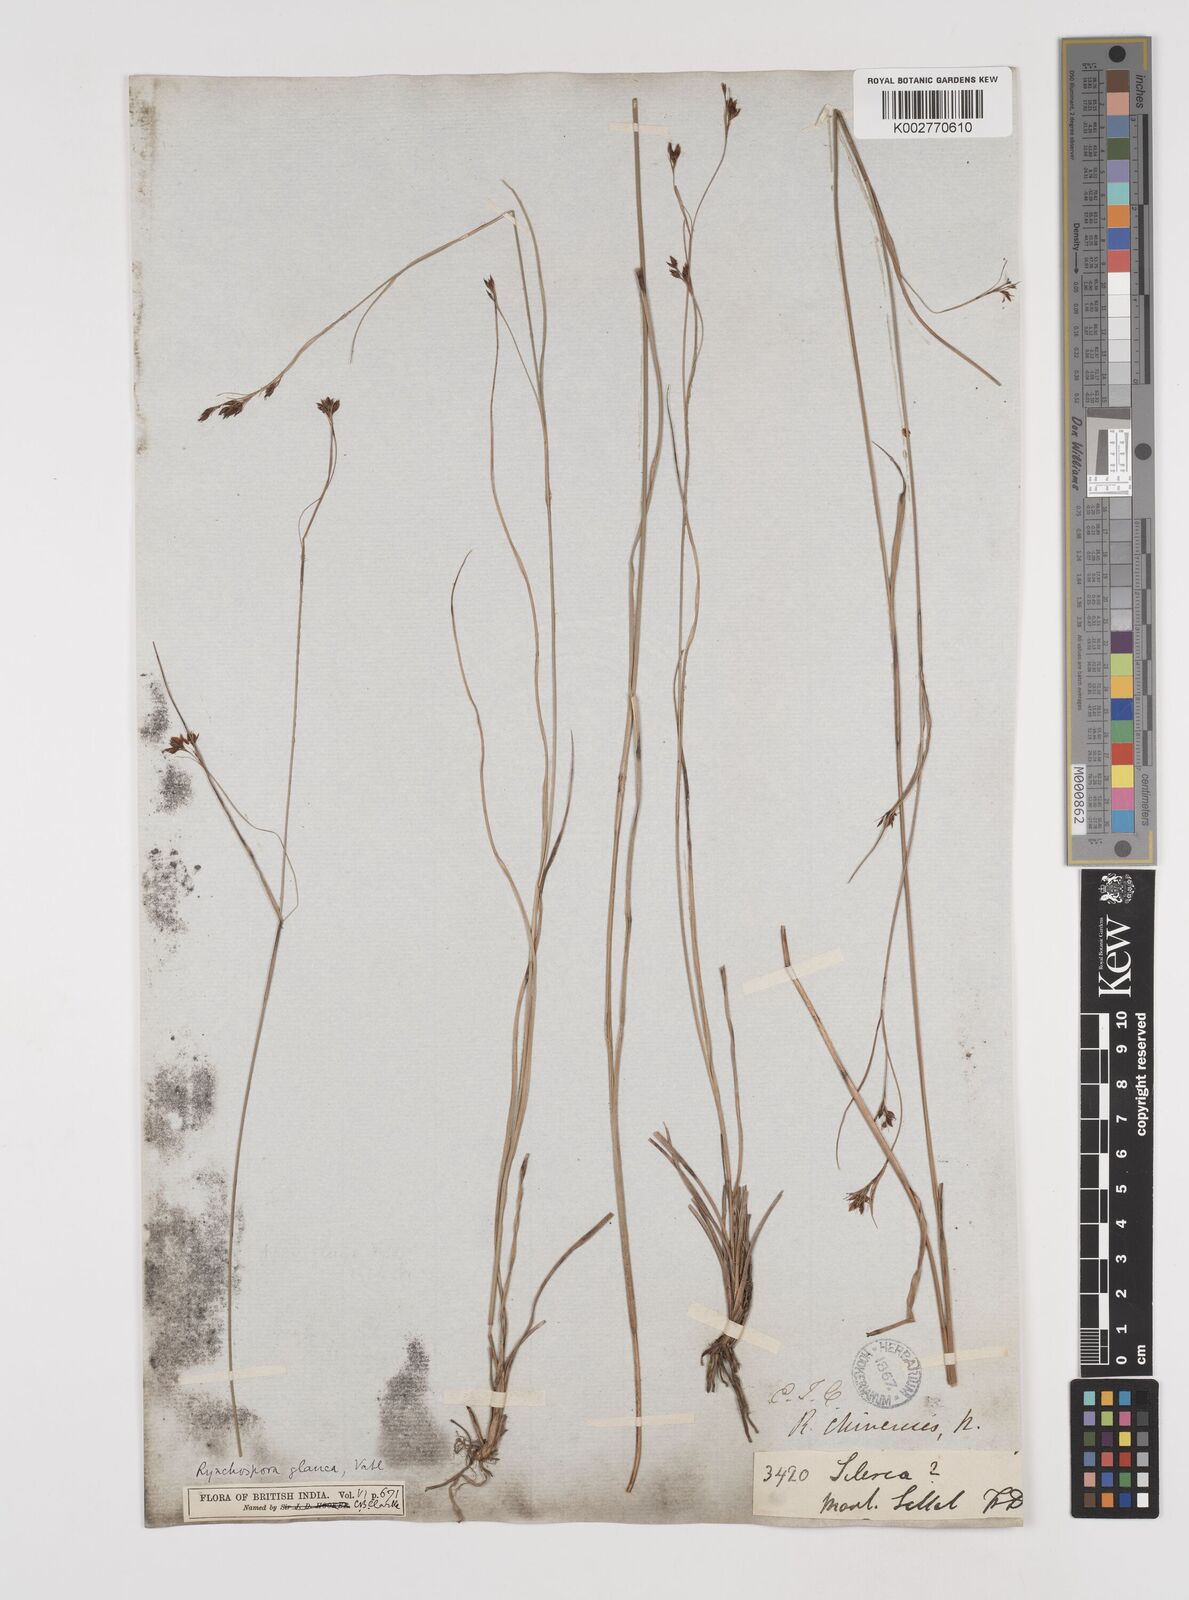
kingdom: Plantae
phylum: Tracheophyta
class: Liliopsida
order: Poales
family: Cyperaceae
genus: Rhynchospora
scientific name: Rhynchospora rugosa
